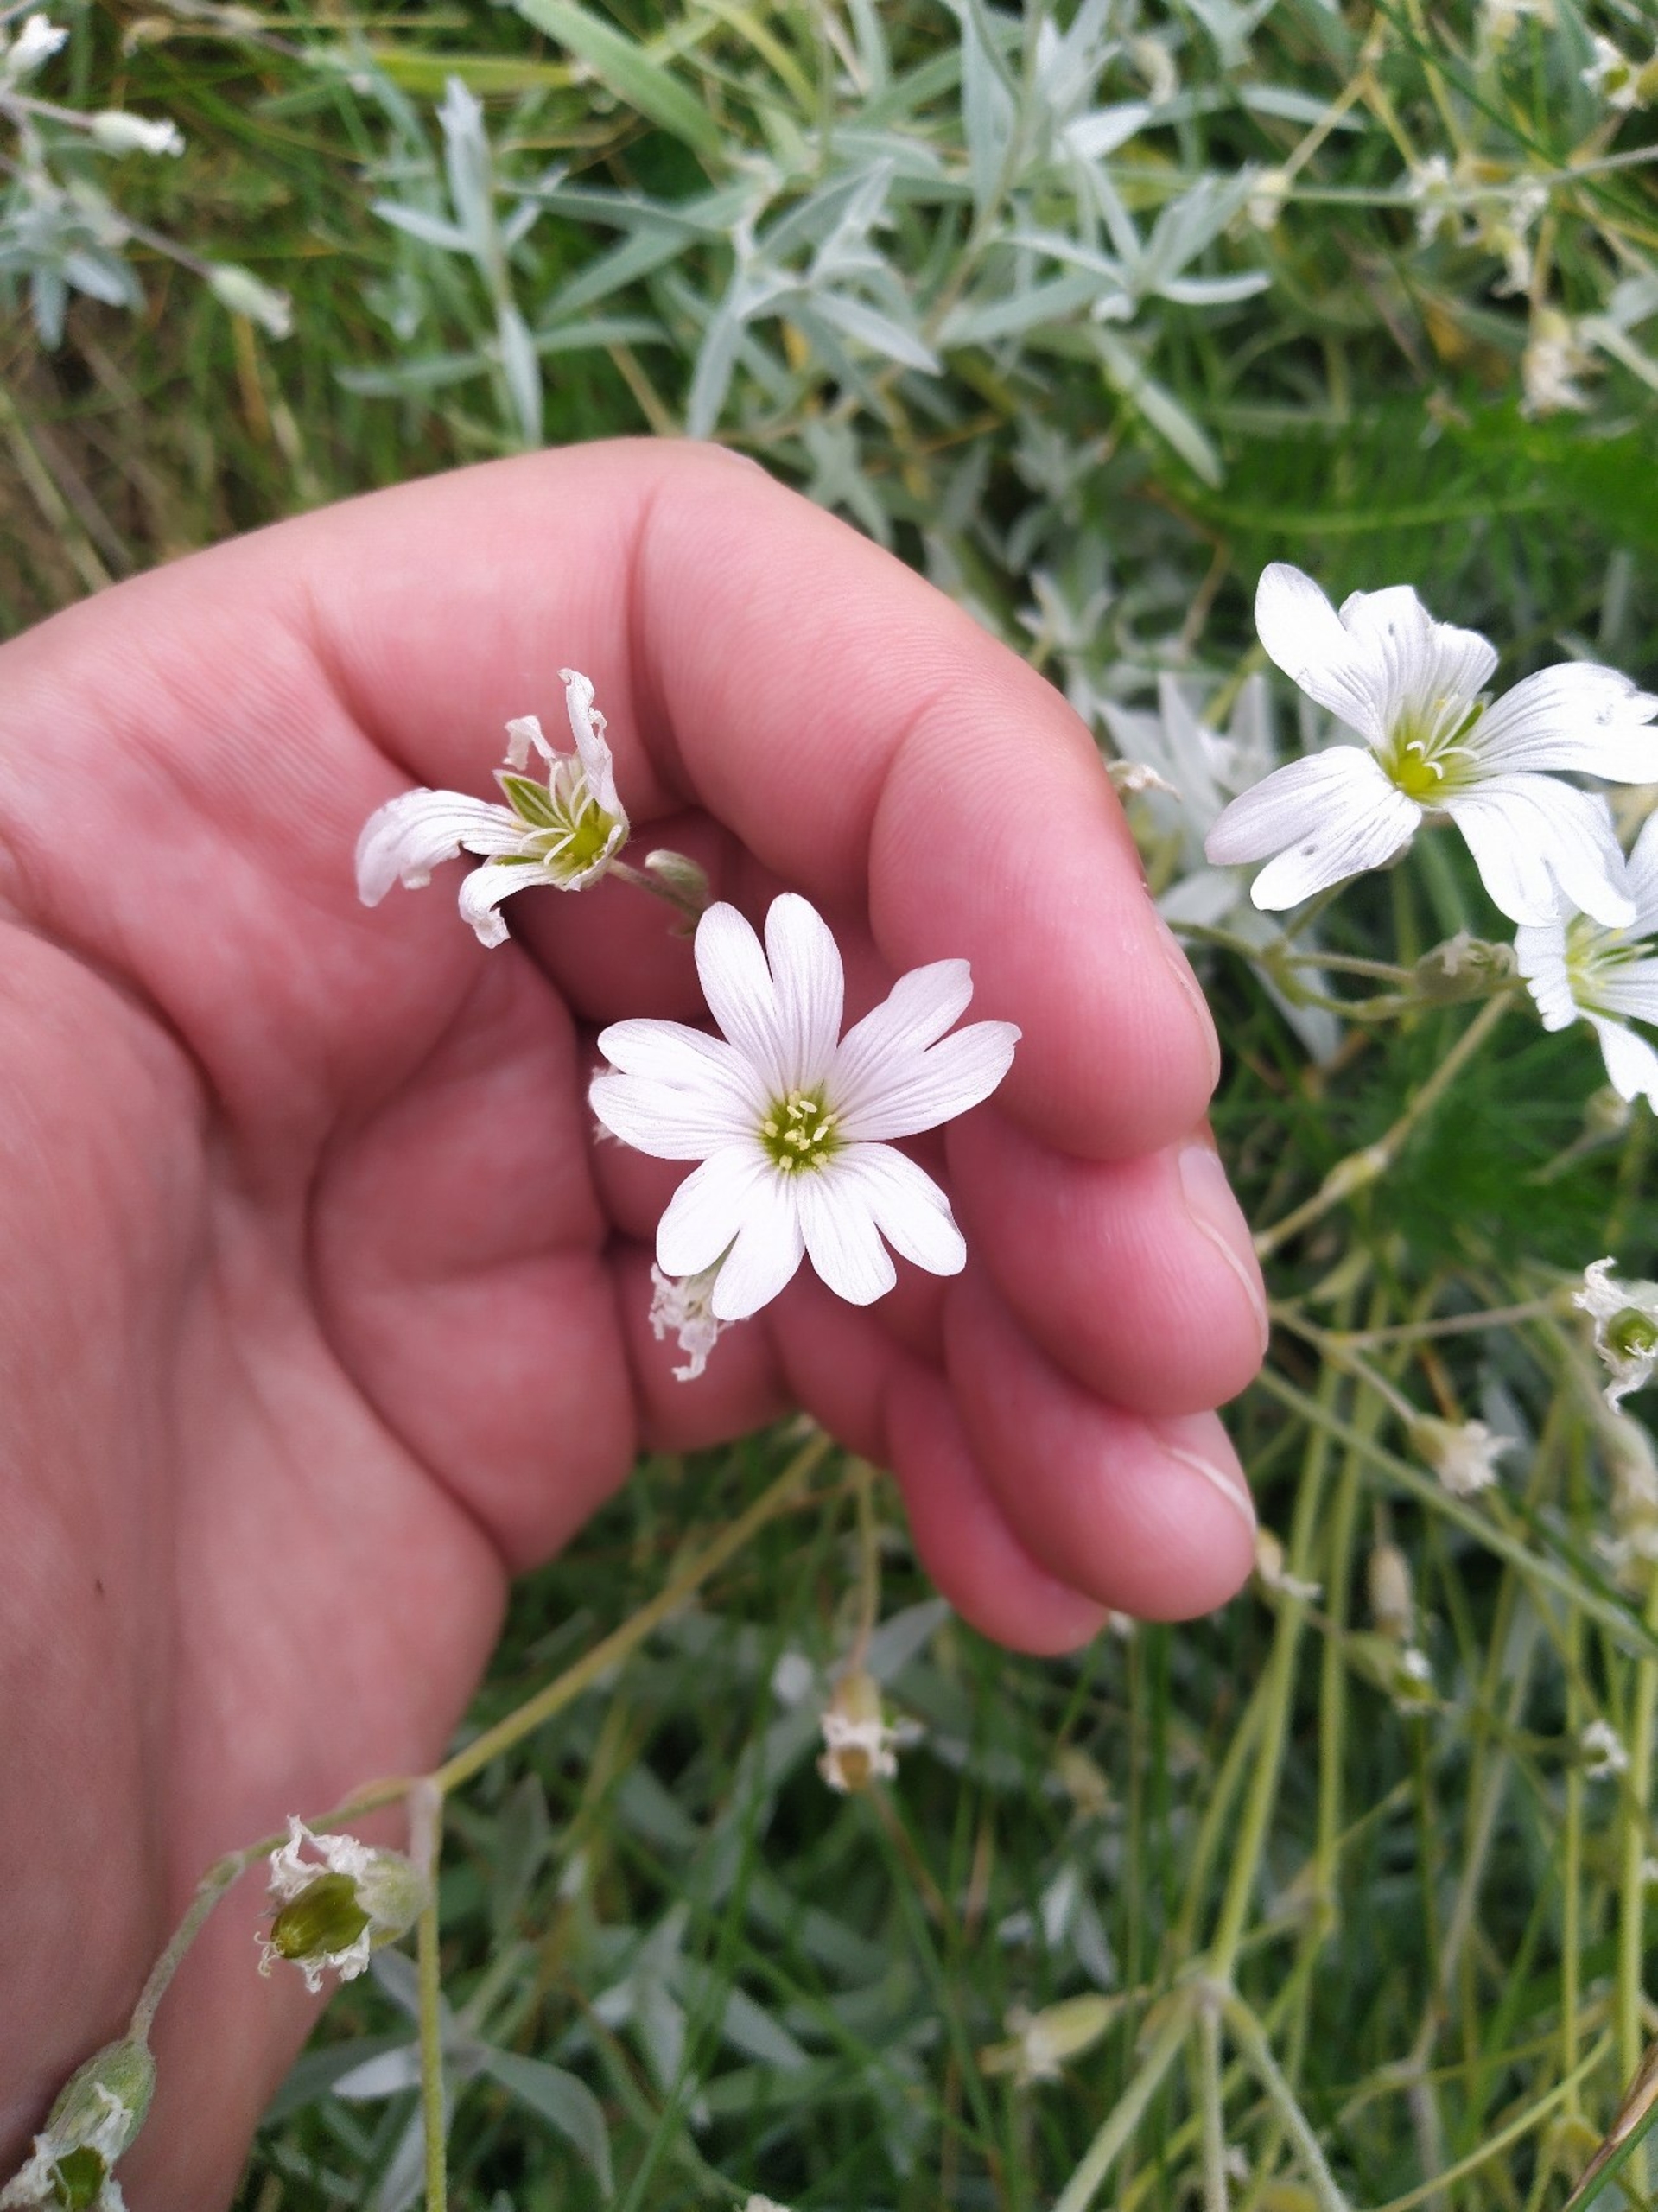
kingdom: Plantae
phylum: Tracheophyta
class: Magnoliopsida
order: Caryophyllales
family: Caryophyllaceae
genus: Cerastium
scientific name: Cerastium tomentosum
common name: Filtet hønsetarm
